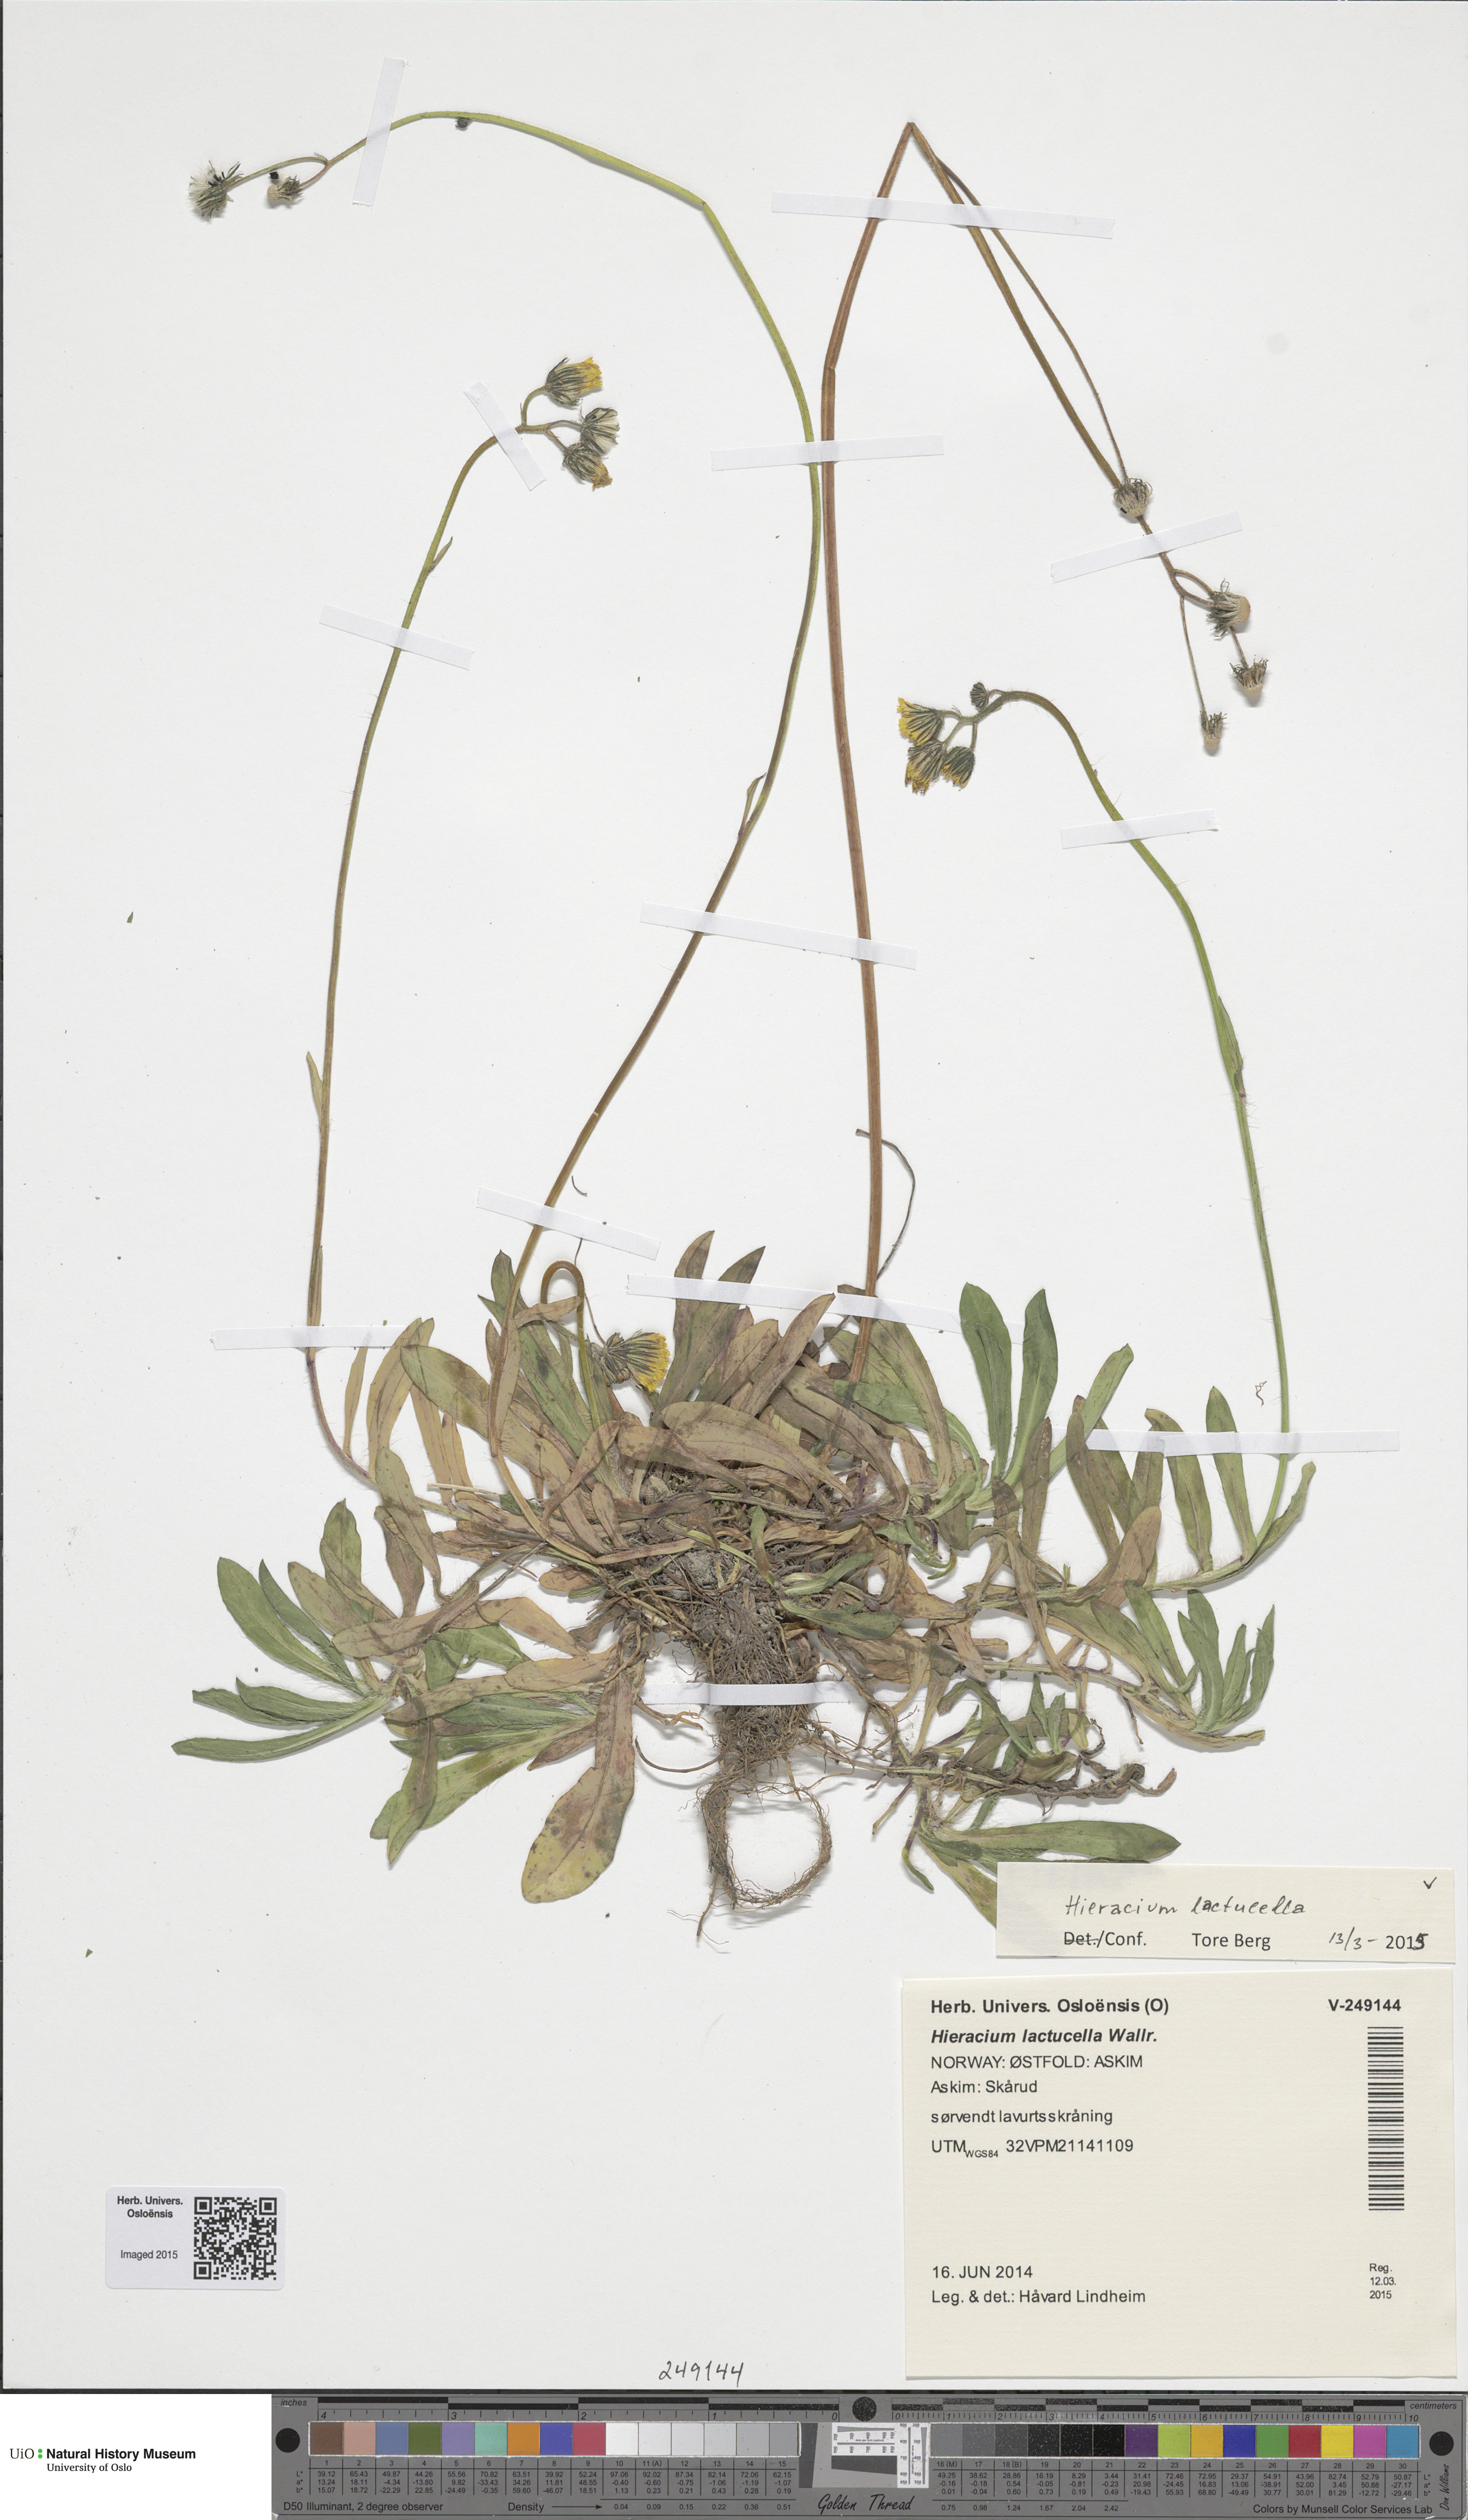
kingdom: Plantae
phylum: Tracheophyta
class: Magnoliopsida
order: Asterales
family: Asteraceae
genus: Pilosella
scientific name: Pilosella lactucella
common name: Glaucous fox-and-cubs
